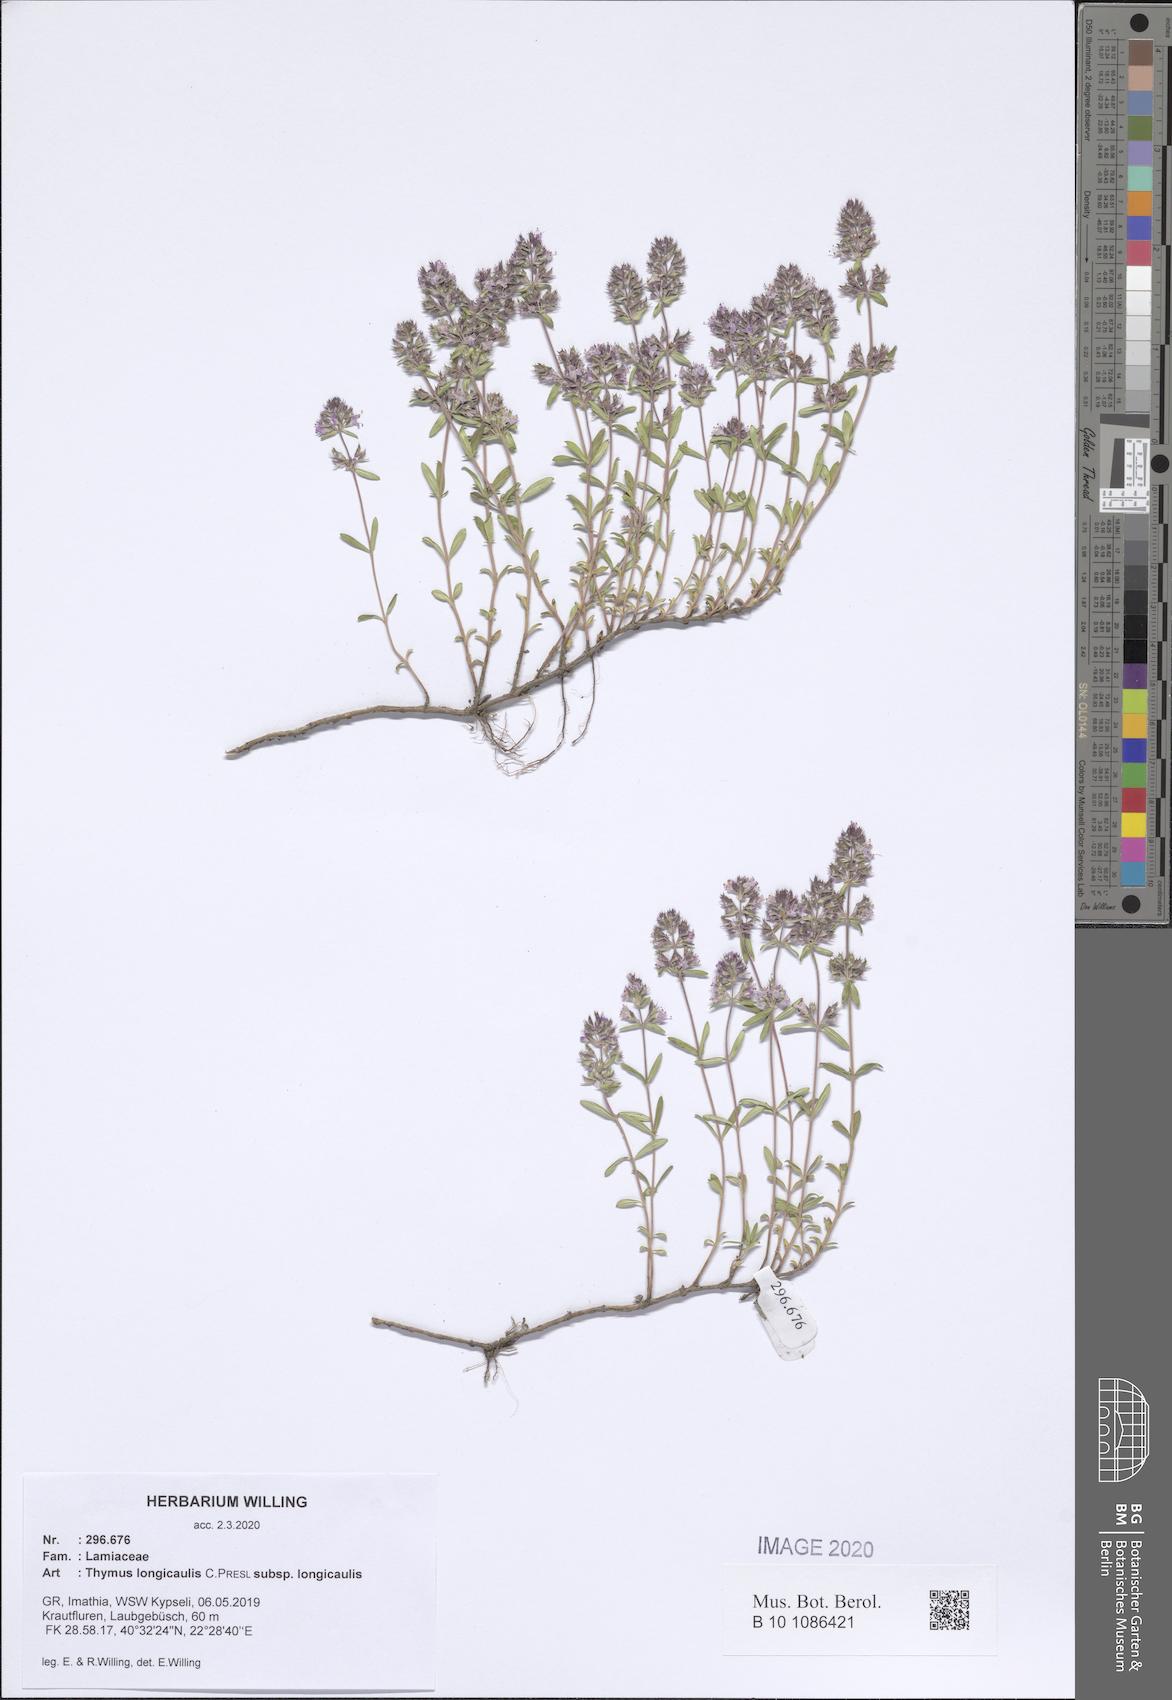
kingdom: Plantae
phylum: Tracheophyta
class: Magnoliopsida
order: Lamiales
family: Lamiaceae
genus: Thymus
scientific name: Thymus longicaulis
